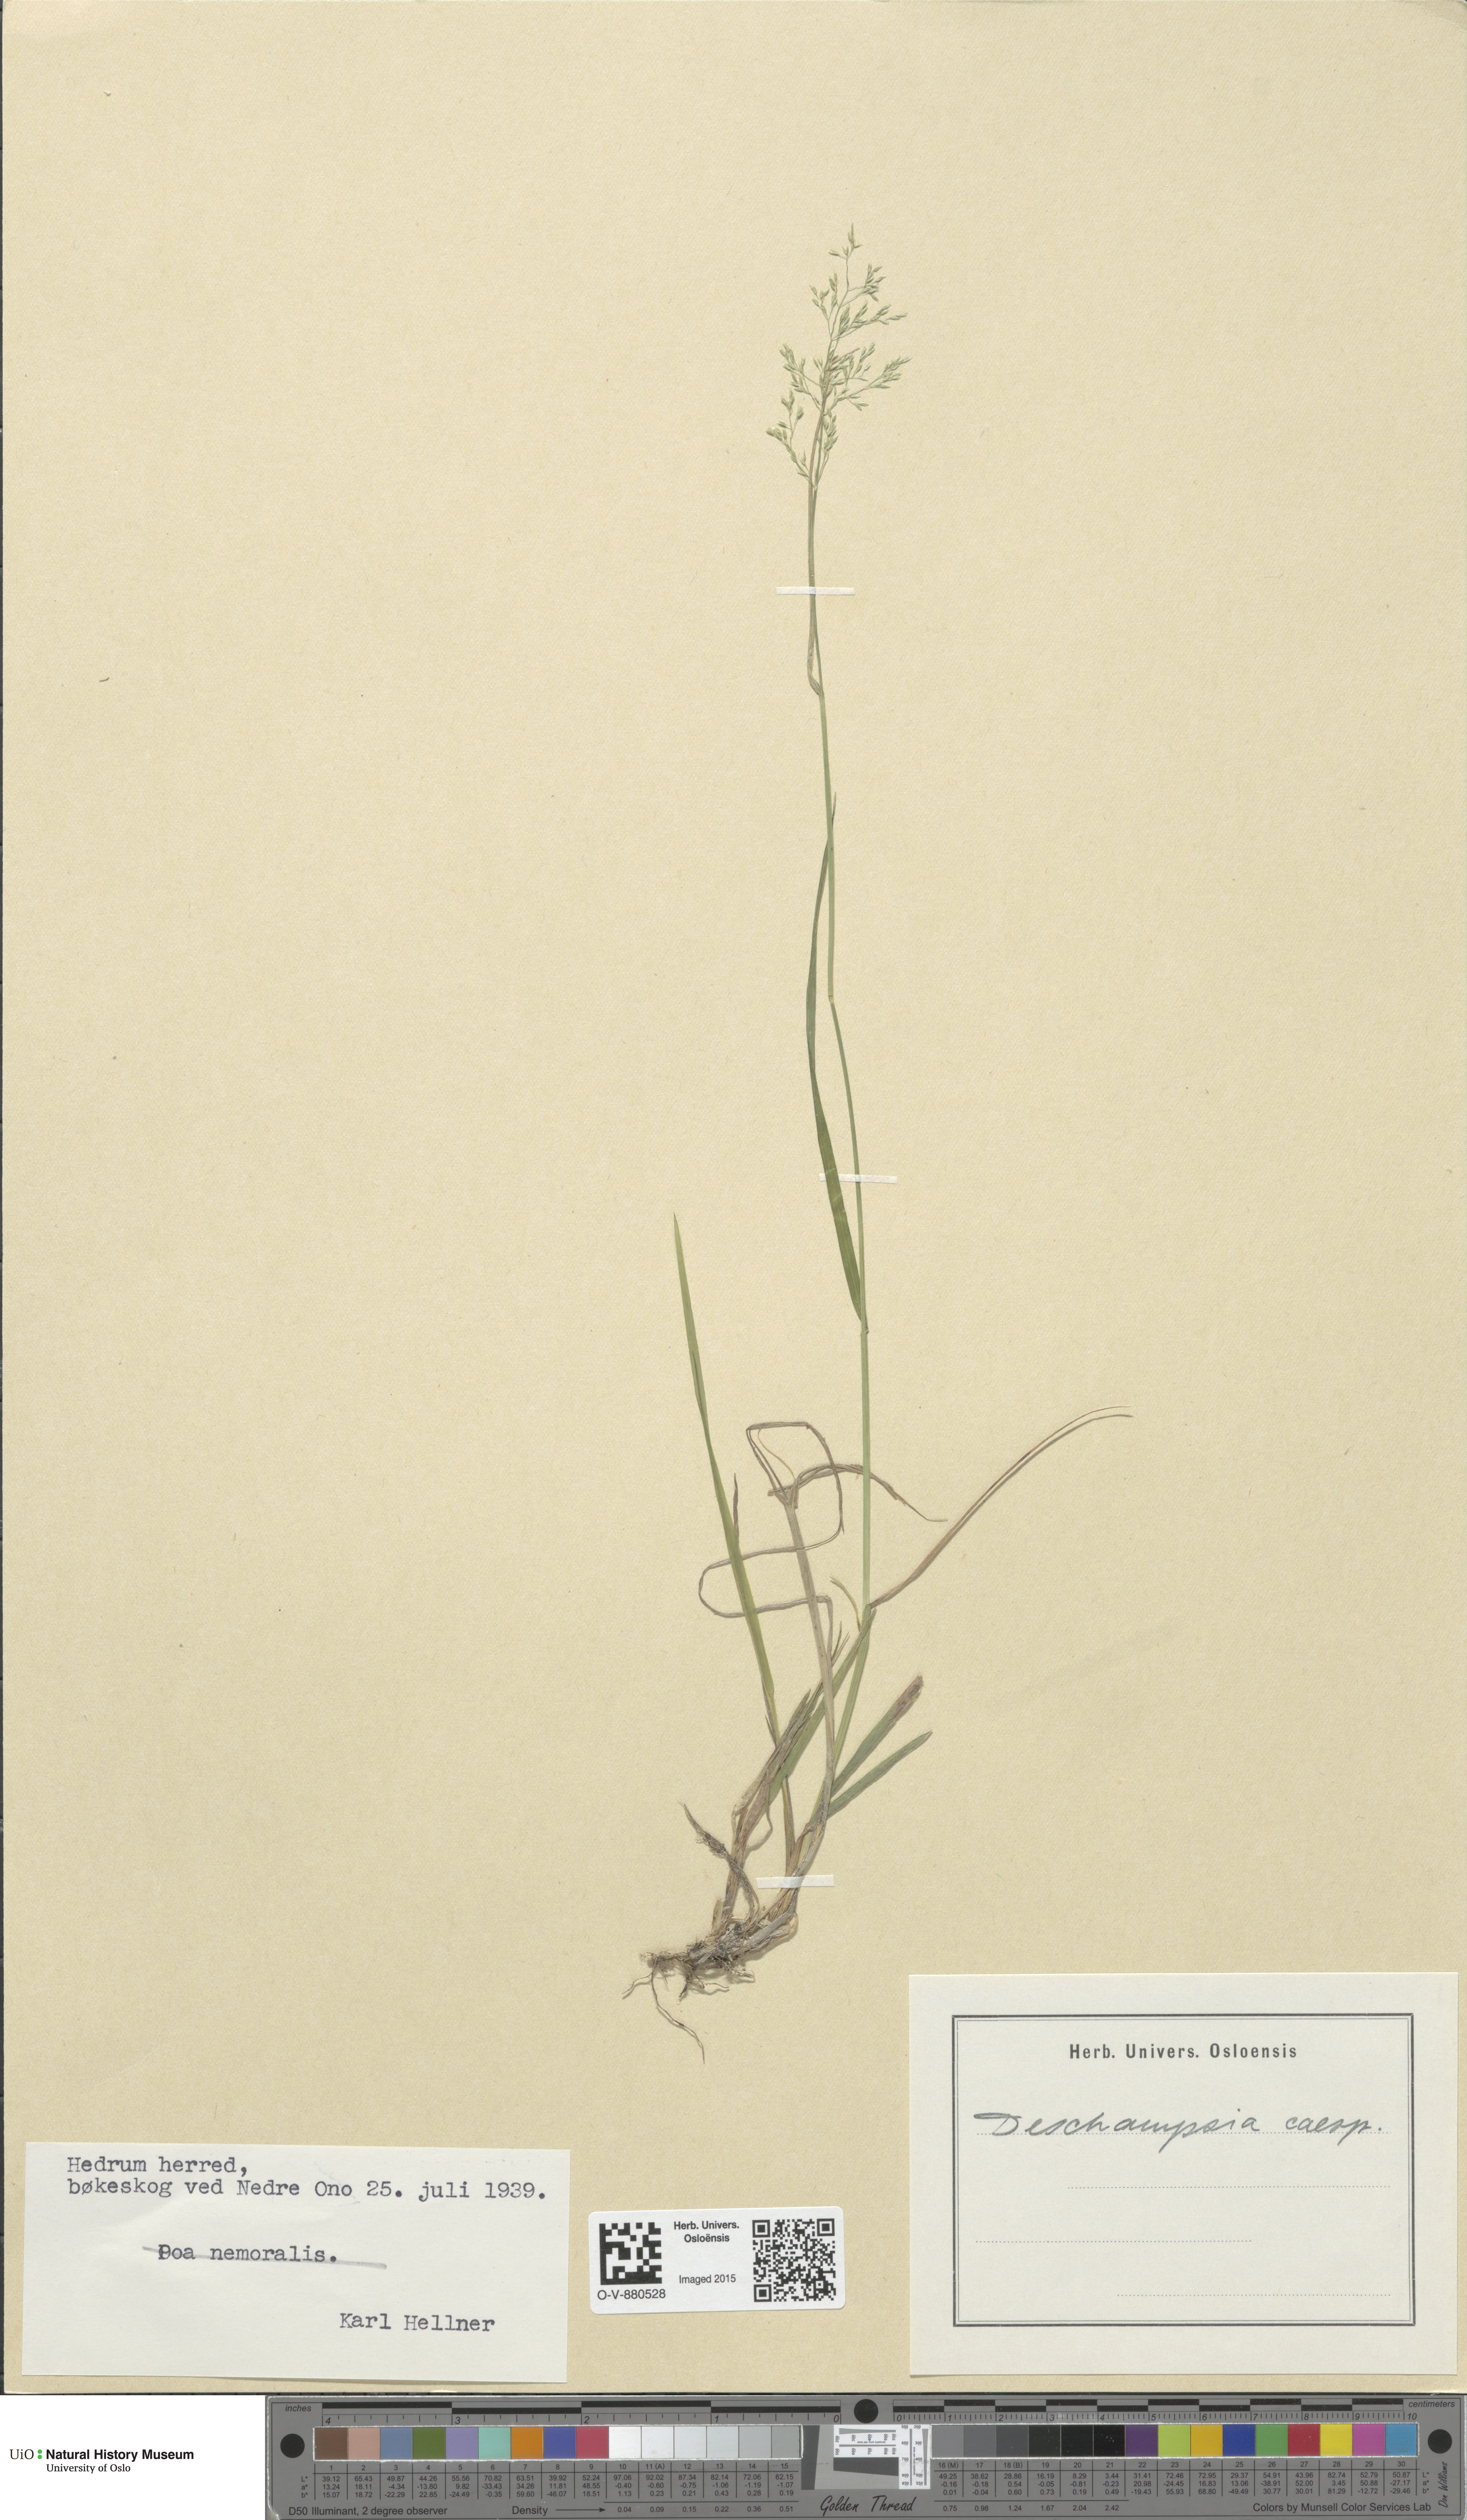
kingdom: Plantae
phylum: Tracheophyta
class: Liliopsida
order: Poales
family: Poaceae
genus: Deschampsia
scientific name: Deschampsia cespitosa
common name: Tufted hair-grass
